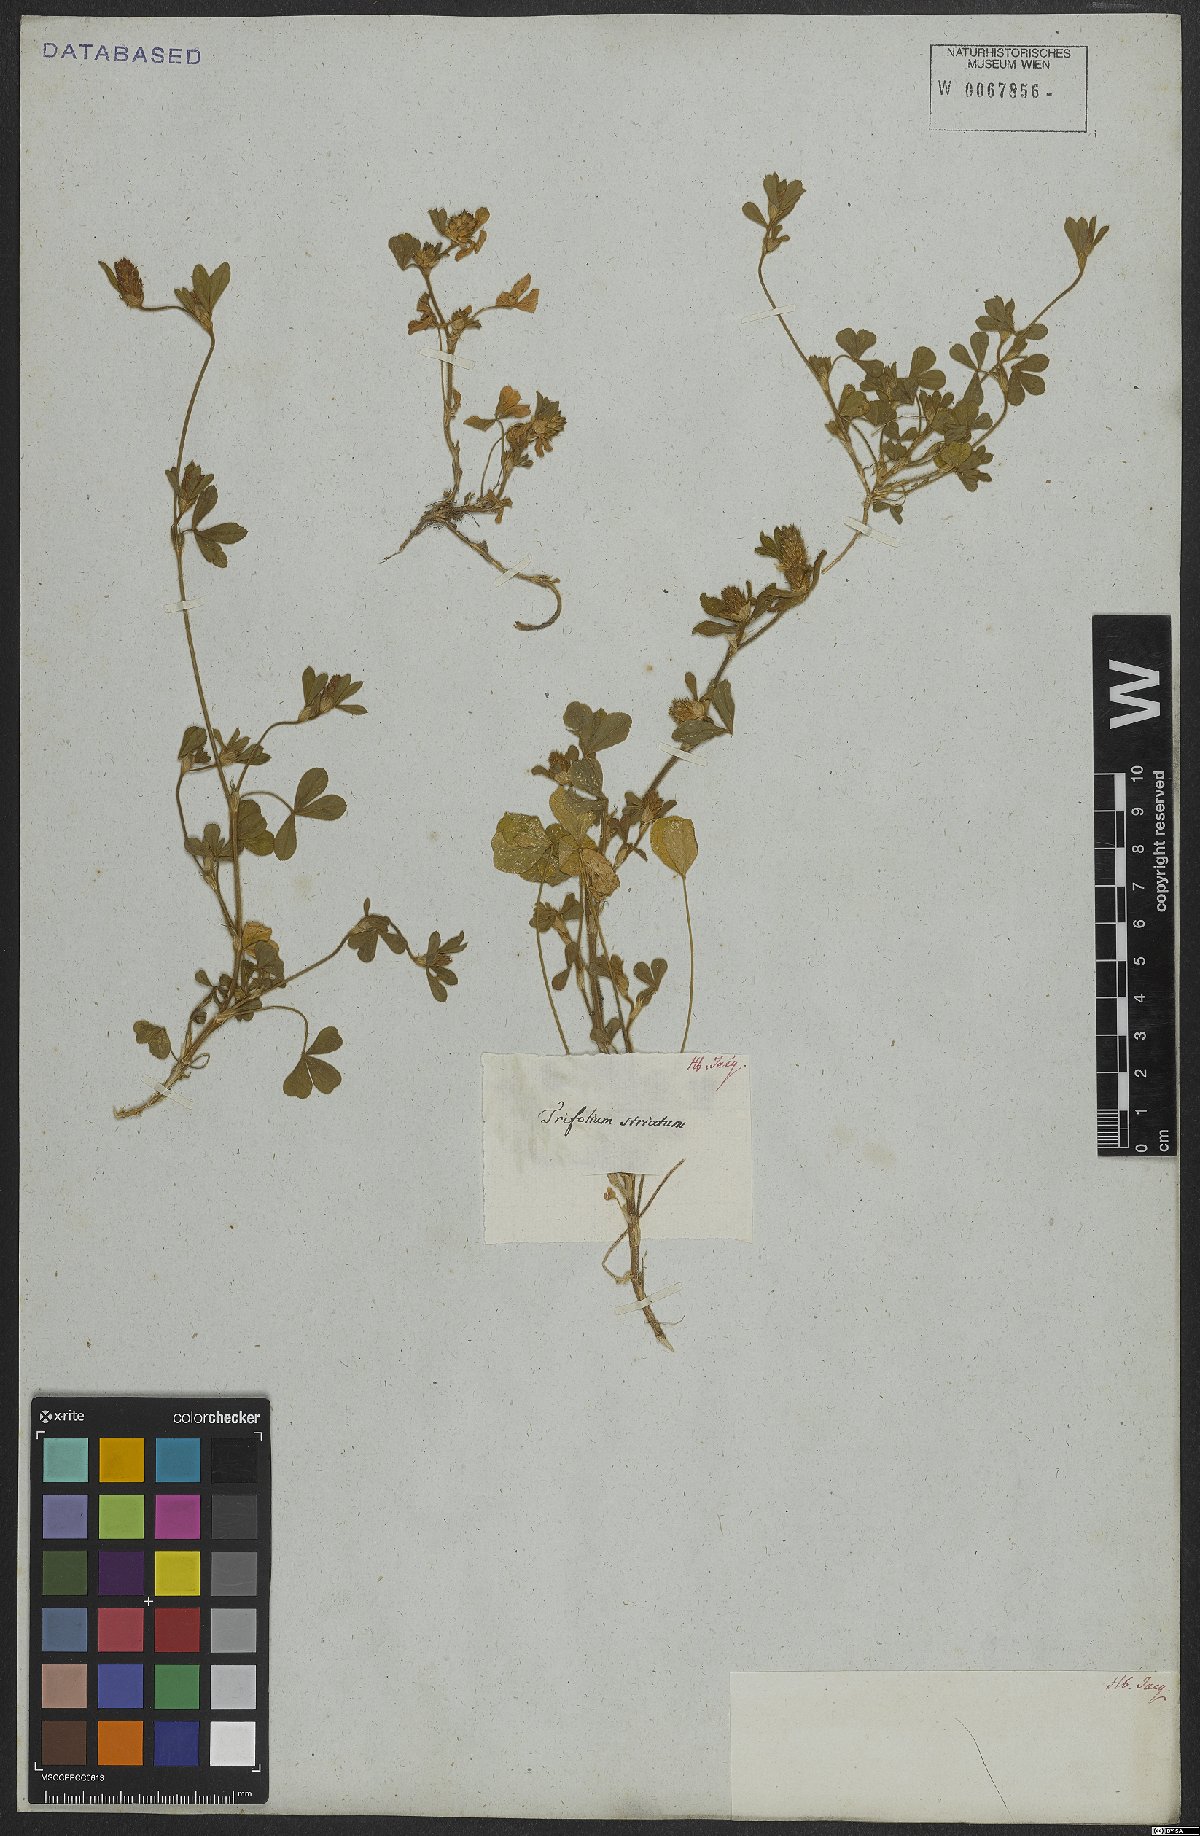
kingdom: Plantae
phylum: Tracheophyta
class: Magnoliopsida
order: Fabales
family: Fabaceae
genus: Trifolium
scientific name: Trifolium striatum
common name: Knotted clover
